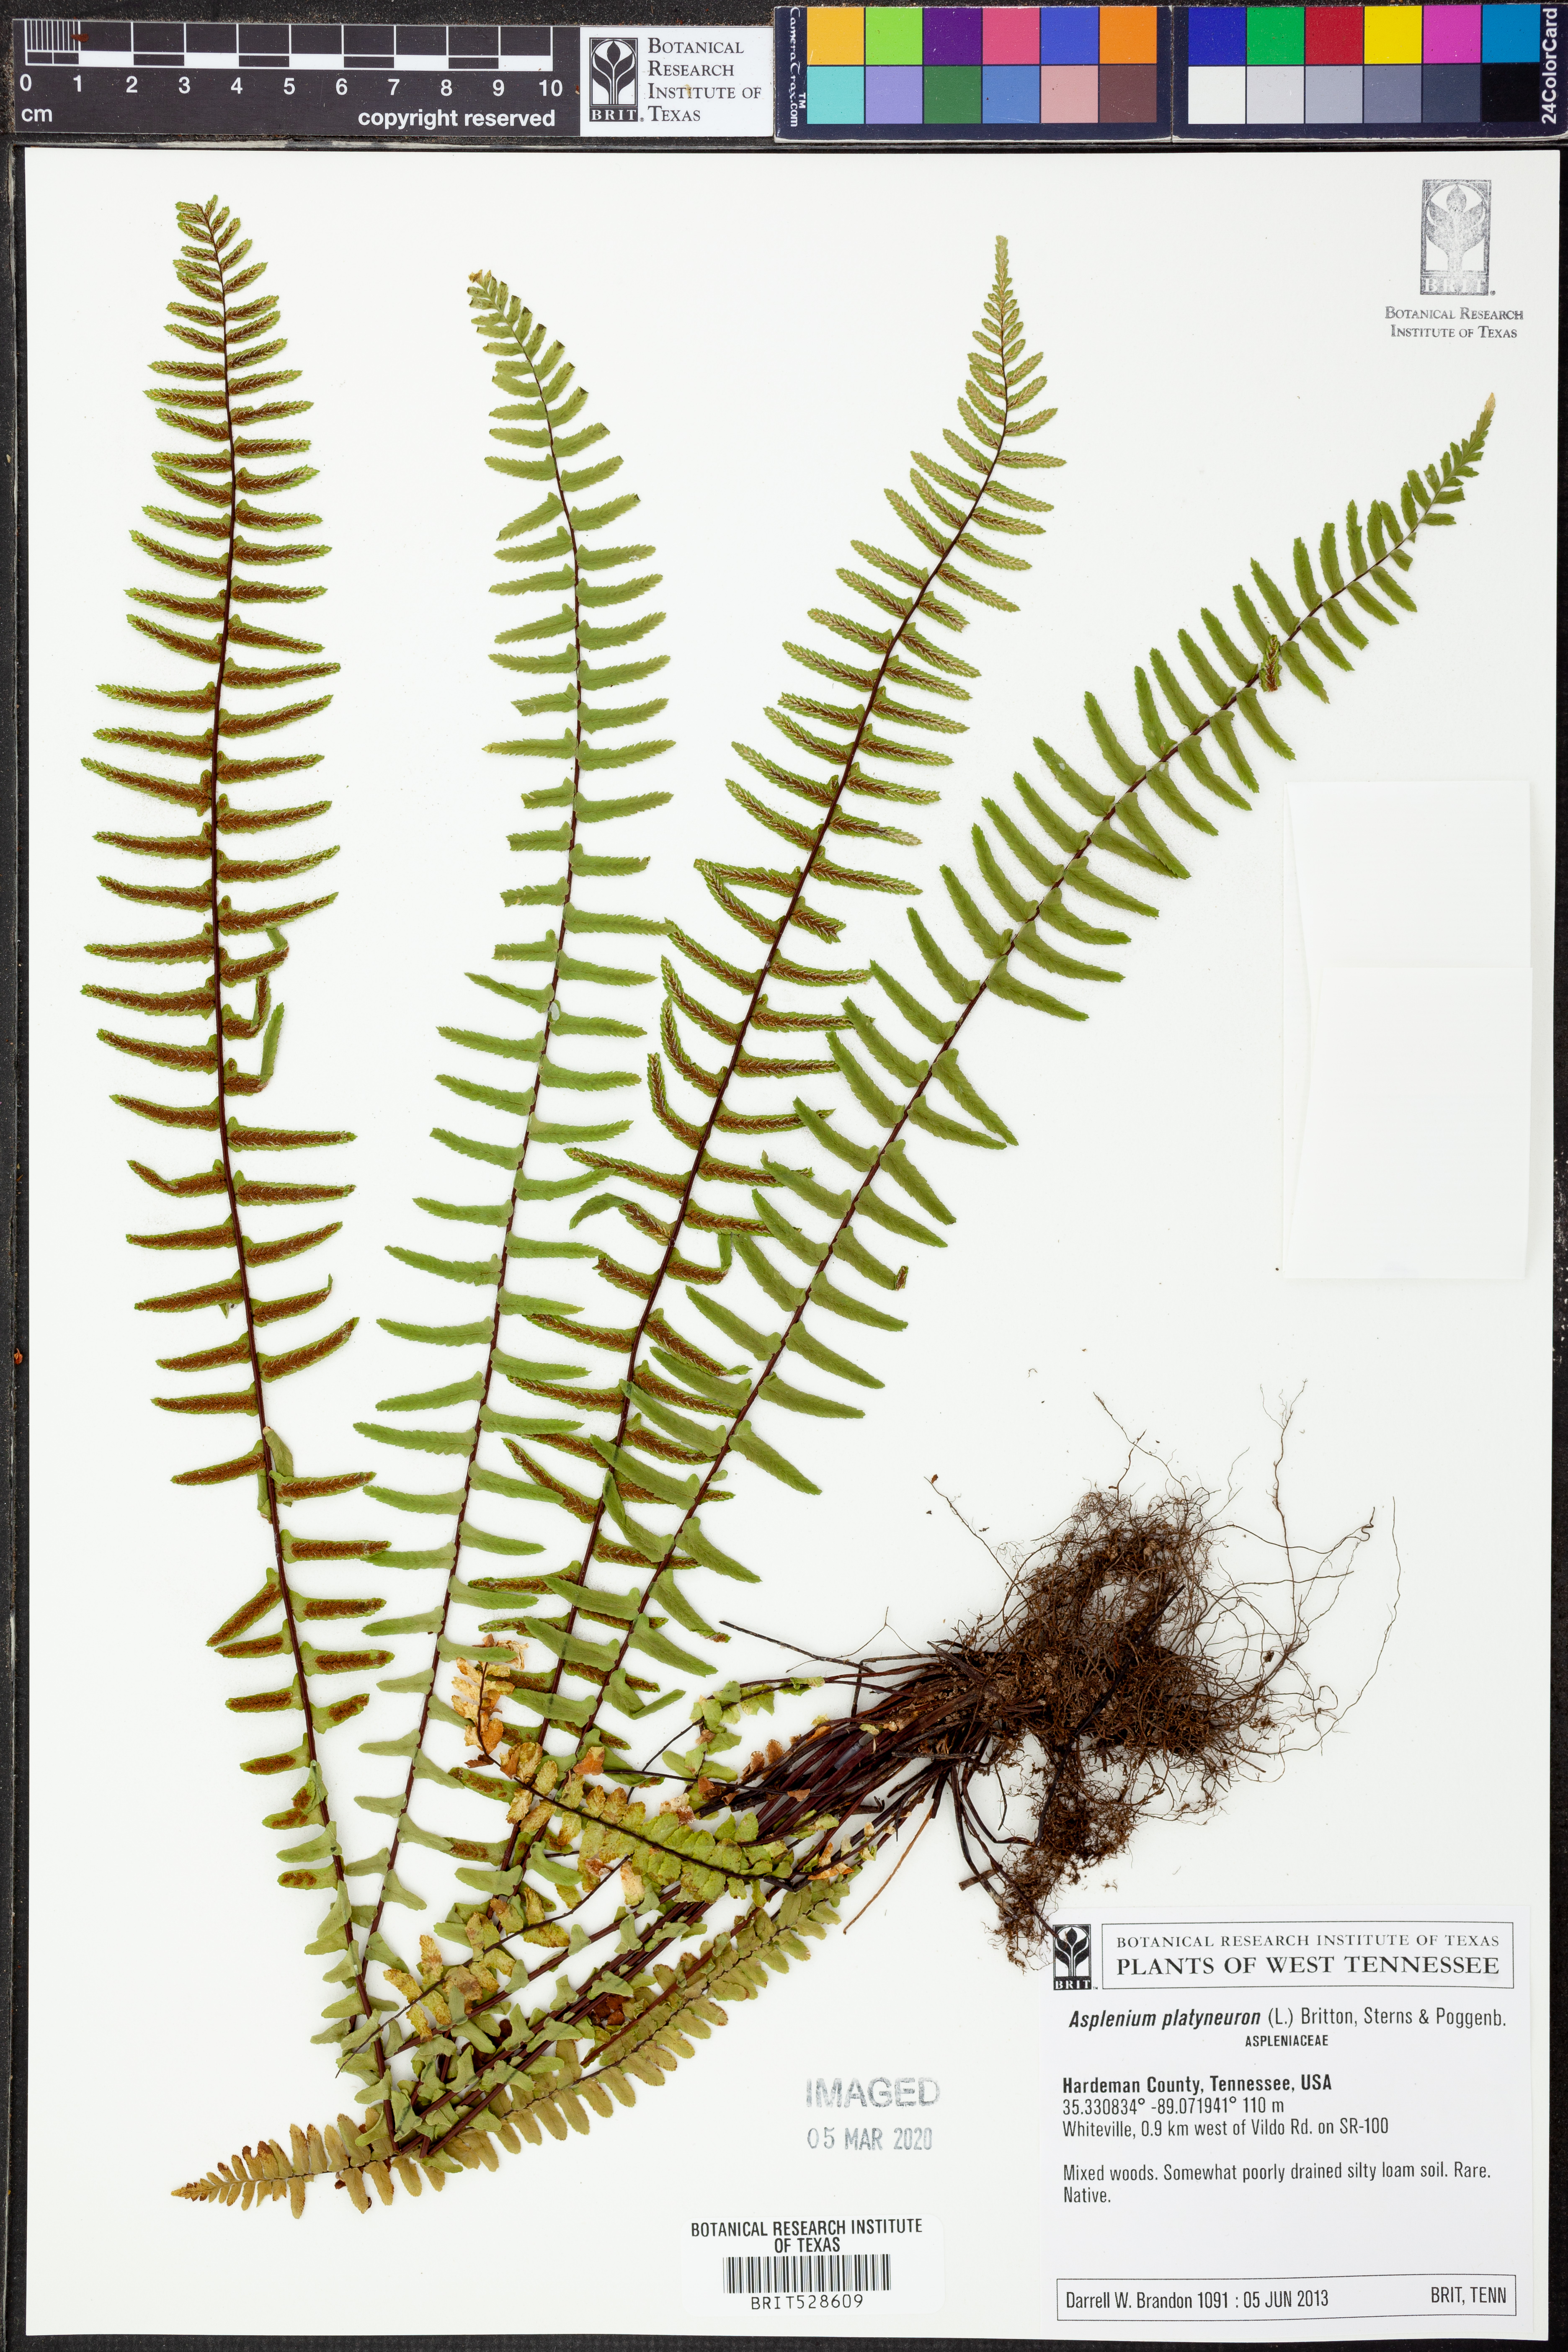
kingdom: Plantae
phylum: Tracheophyta
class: Polypodiopsida
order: Polypodiales
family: Aspleniaceae
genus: Asplenium
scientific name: Asplenium platyneuron
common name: Ebony spleenwort
